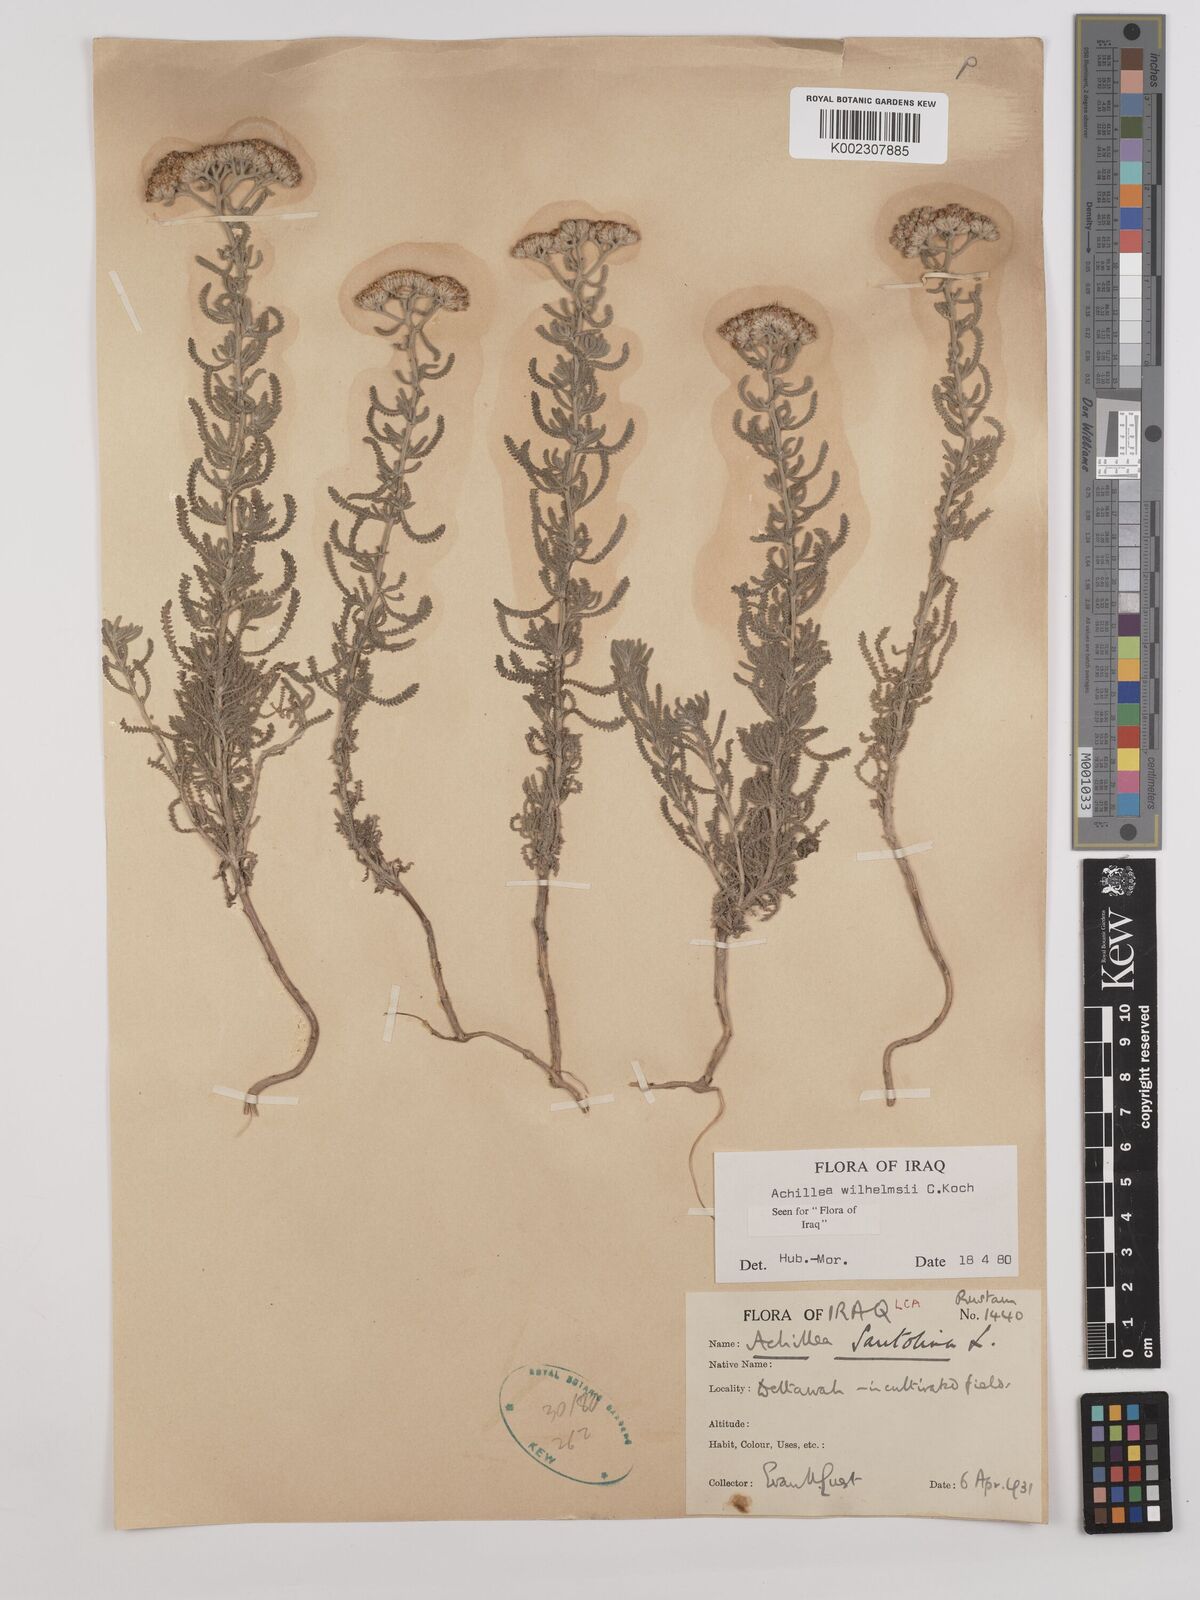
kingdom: Plantae
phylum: Tracheophyta
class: Magnoliopsida
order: Asterales
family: Asteraceae
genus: Achillea
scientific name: Achillea wilhelmsii
